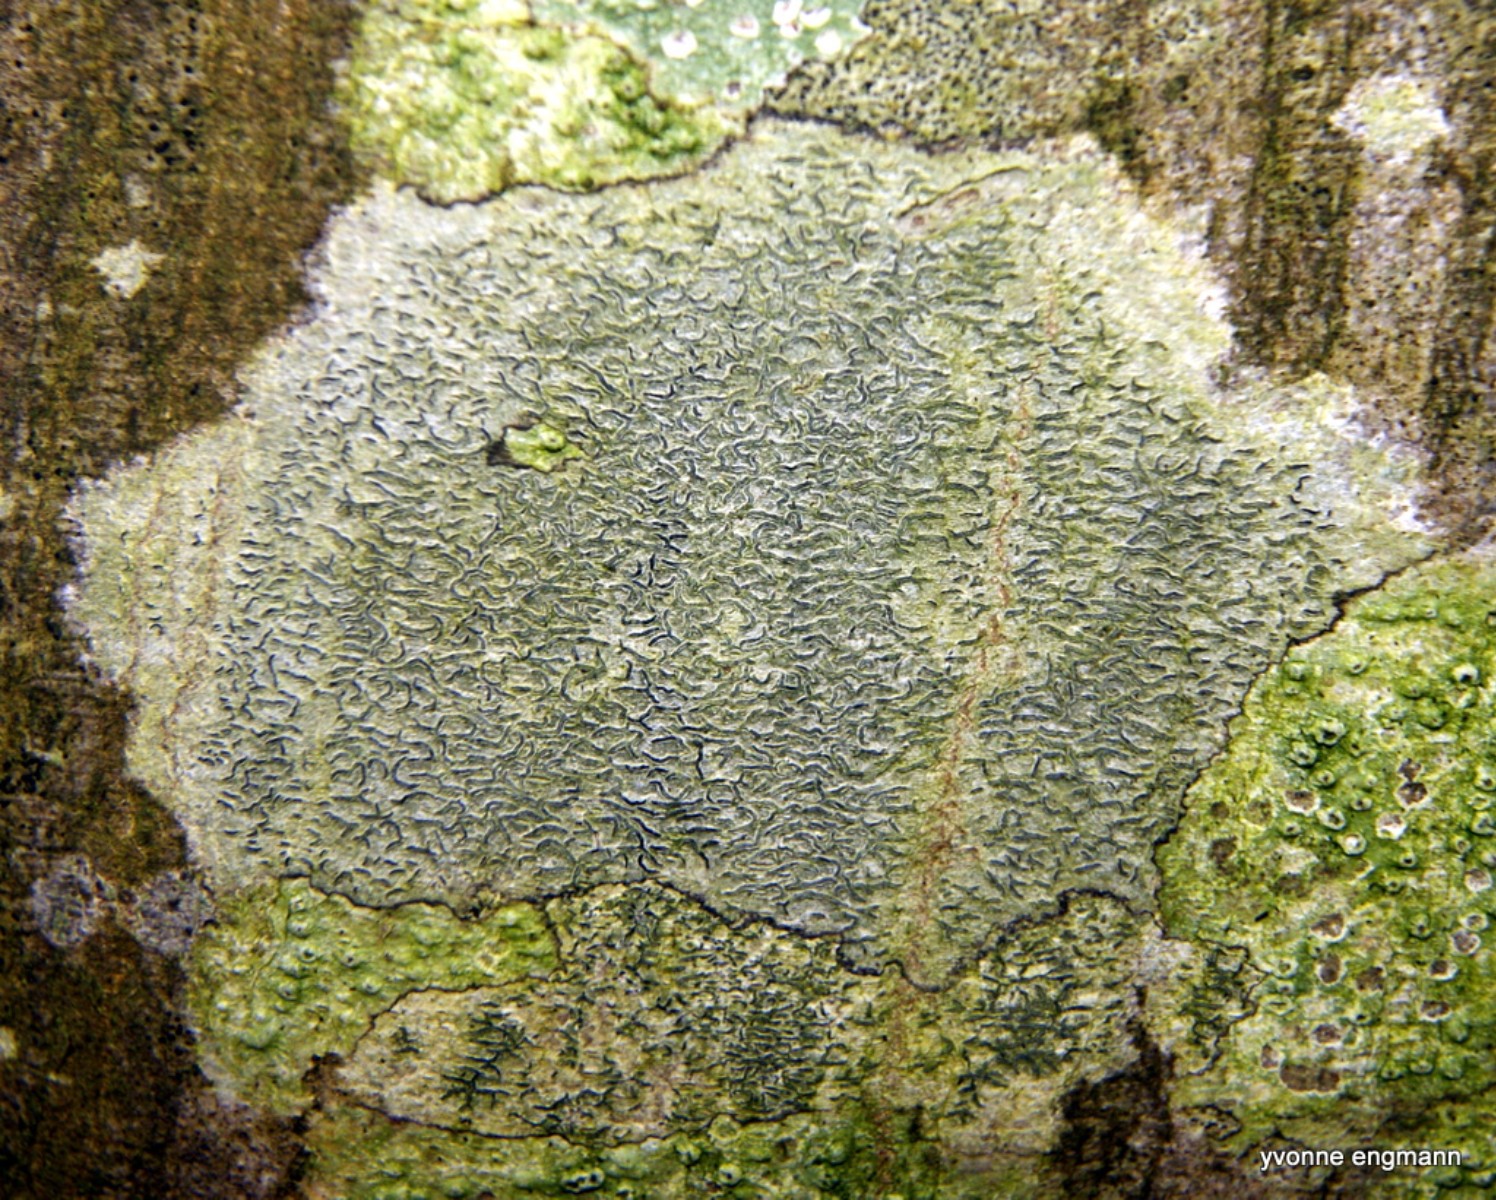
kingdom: Fungi
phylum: Ascomycota
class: Lecanoromycetes
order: Ostropales
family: Graphidaceae
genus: Graphis
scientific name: Graphis scripta
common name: almindelig skriftlav
